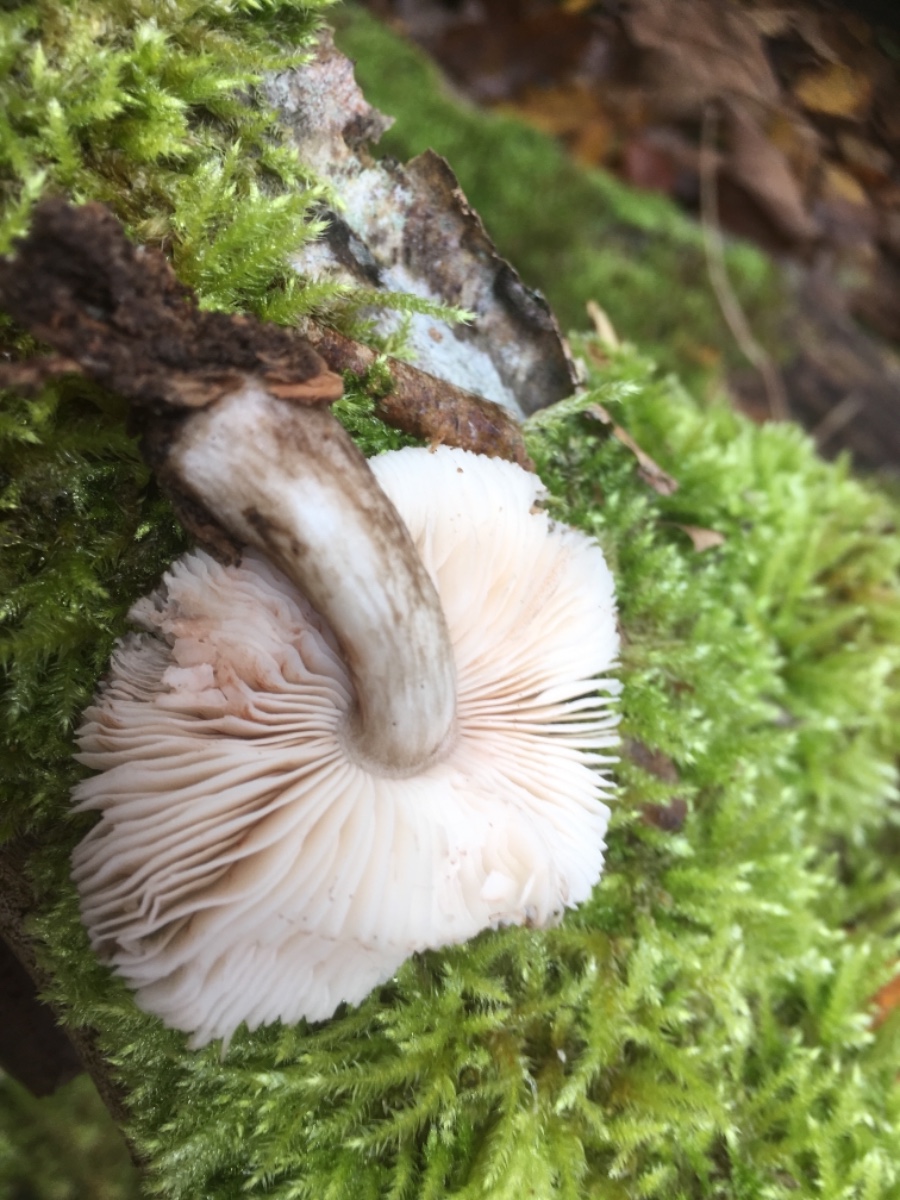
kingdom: Fungi
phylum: Basidiomycota
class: Agaricomycetes
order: Agaricales
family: Pluteaceae
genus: Pluteus
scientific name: Pluteus cervinus
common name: sodfarvet skærmhat
